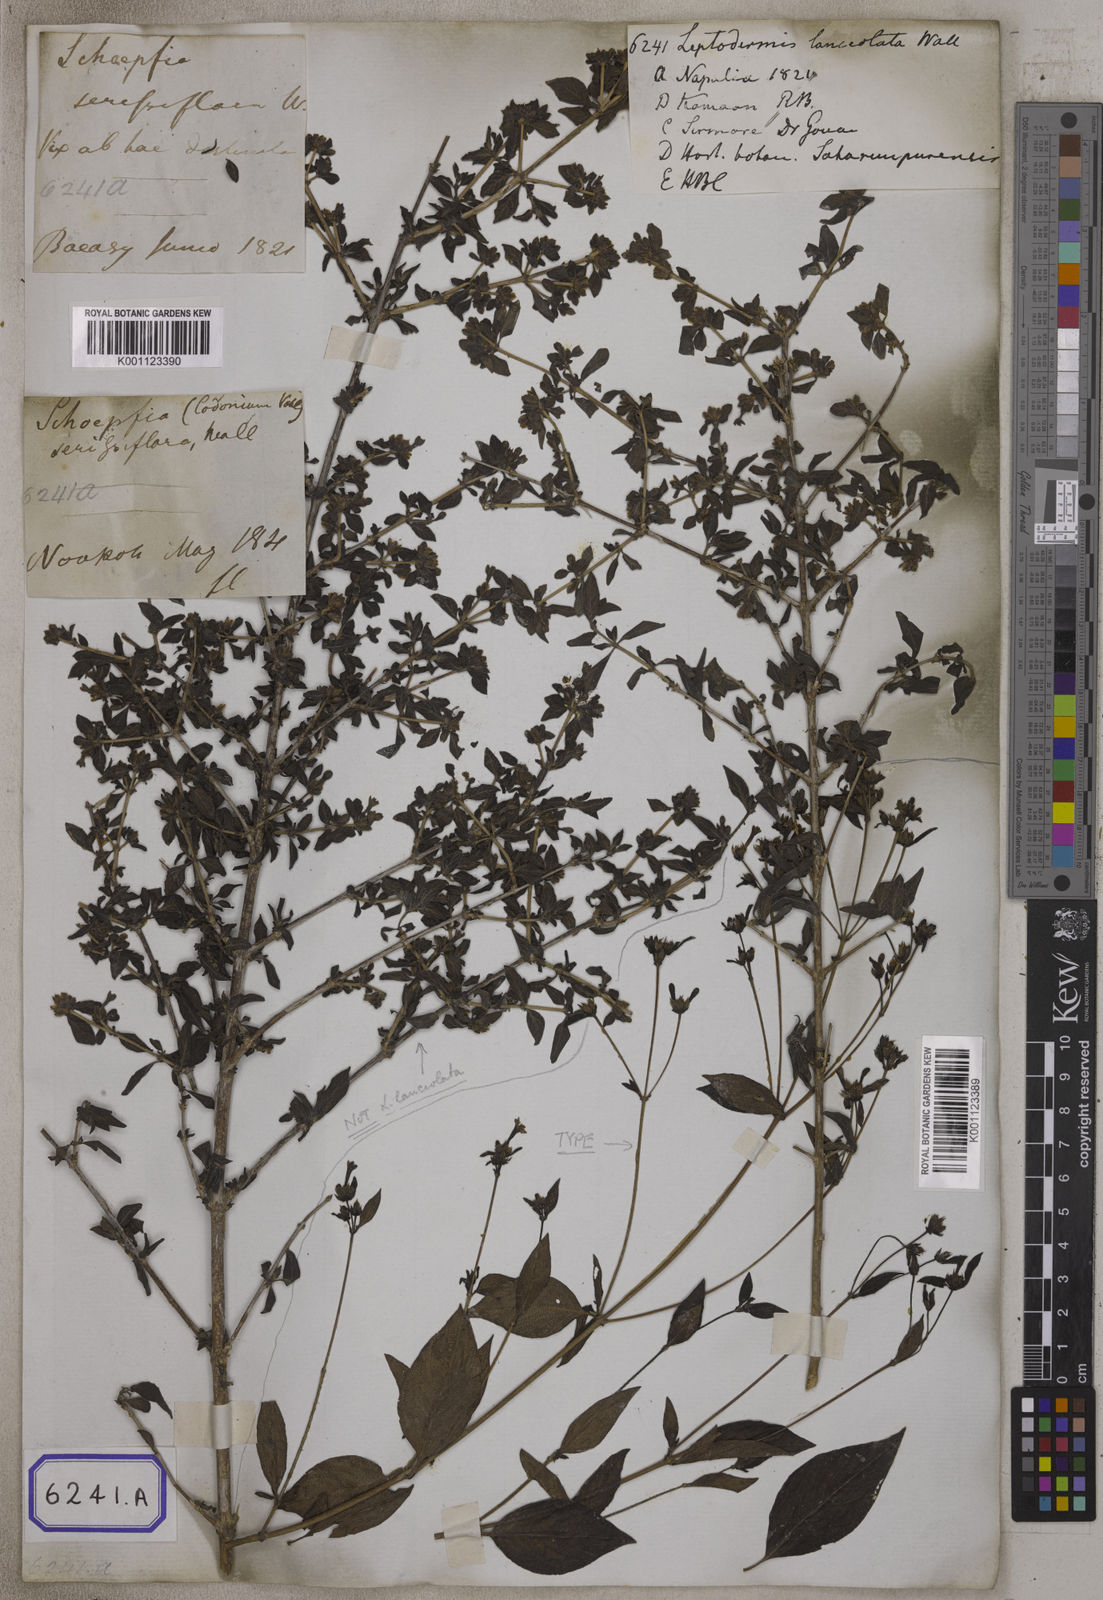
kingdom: Plantae
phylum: Tracheophyta
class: Magnoliopsida
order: Gentianales
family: Rubiaceae
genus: Leptodermis
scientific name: Leptodermis lanceolata
